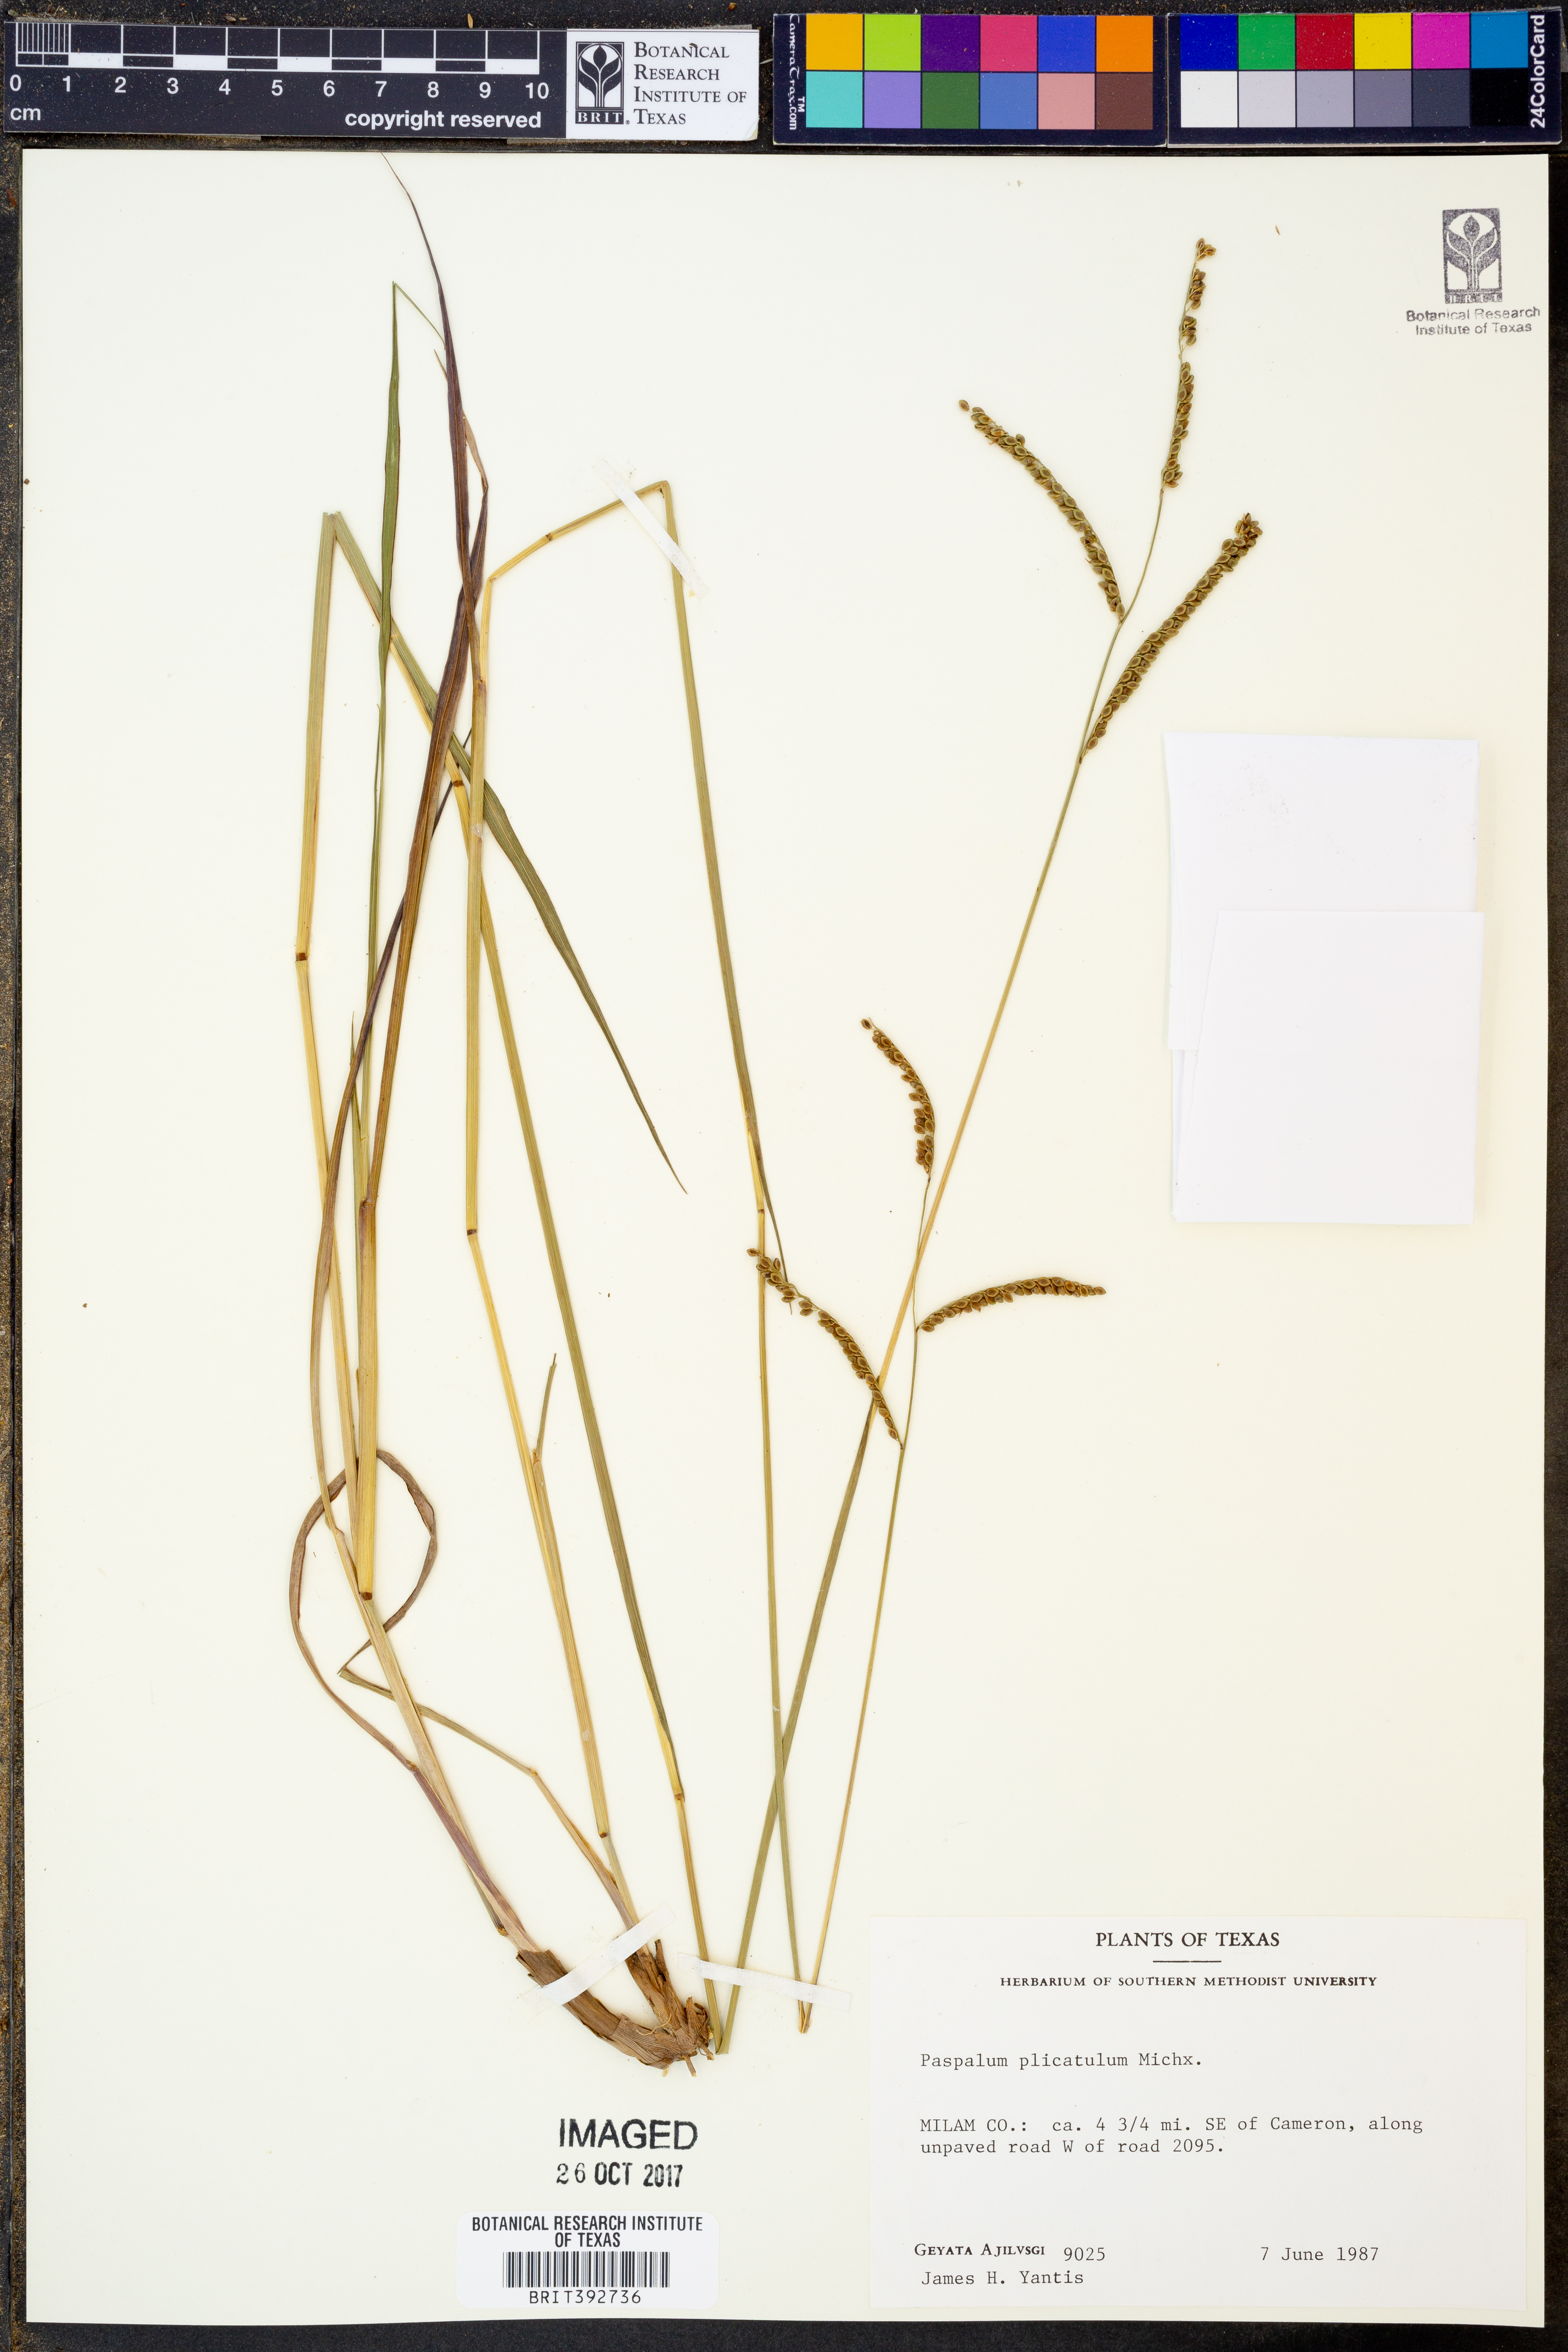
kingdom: Plantae
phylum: Tracheophyta
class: Liliopsida
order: Poales
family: Poaceae
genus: Paspalum
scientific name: Paspalum plicatulum
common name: Top paspalum
